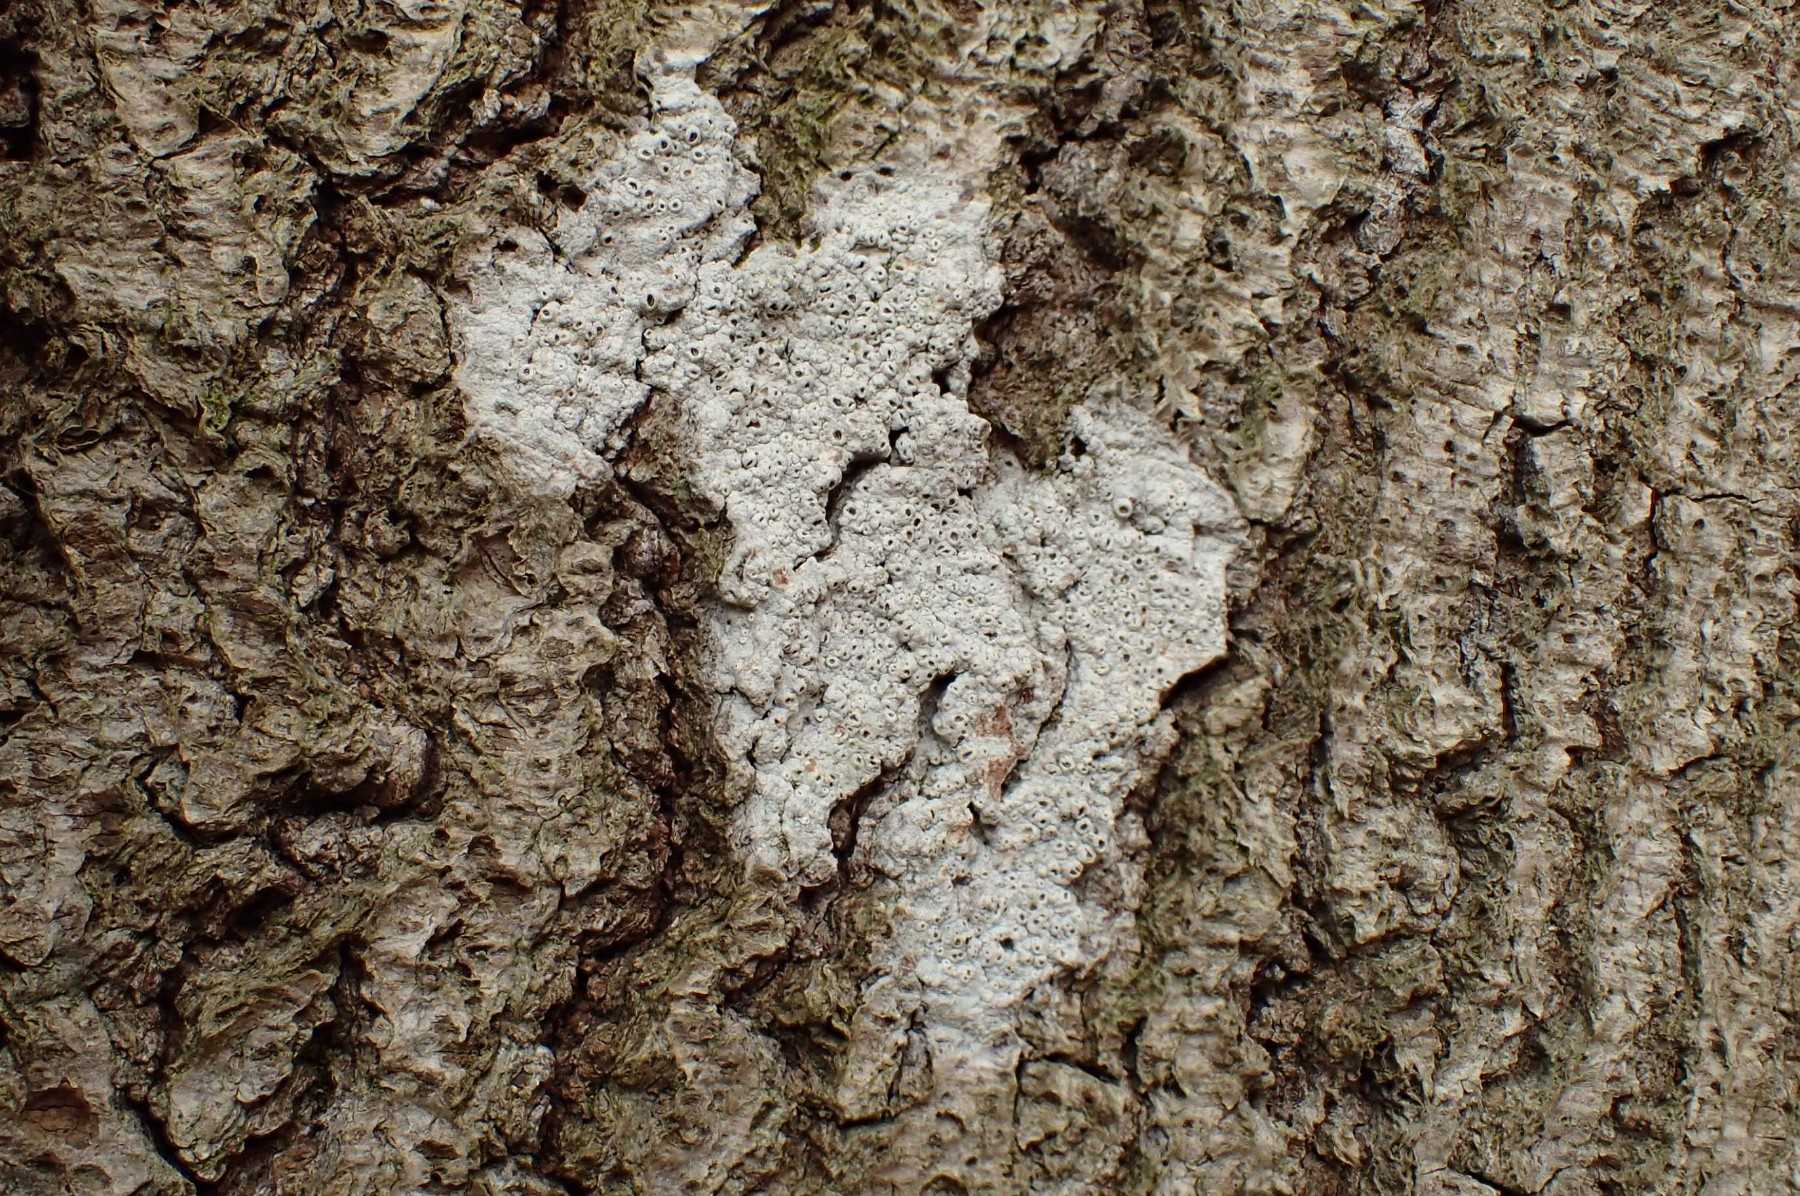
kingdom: Fungi
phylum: Ascomycota
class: Lecanoromycetes
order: Ostropales
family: Graphidaceae
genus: Thelotrema
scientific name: Thelotrema lepadinum
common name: almindelig slørkantlav
